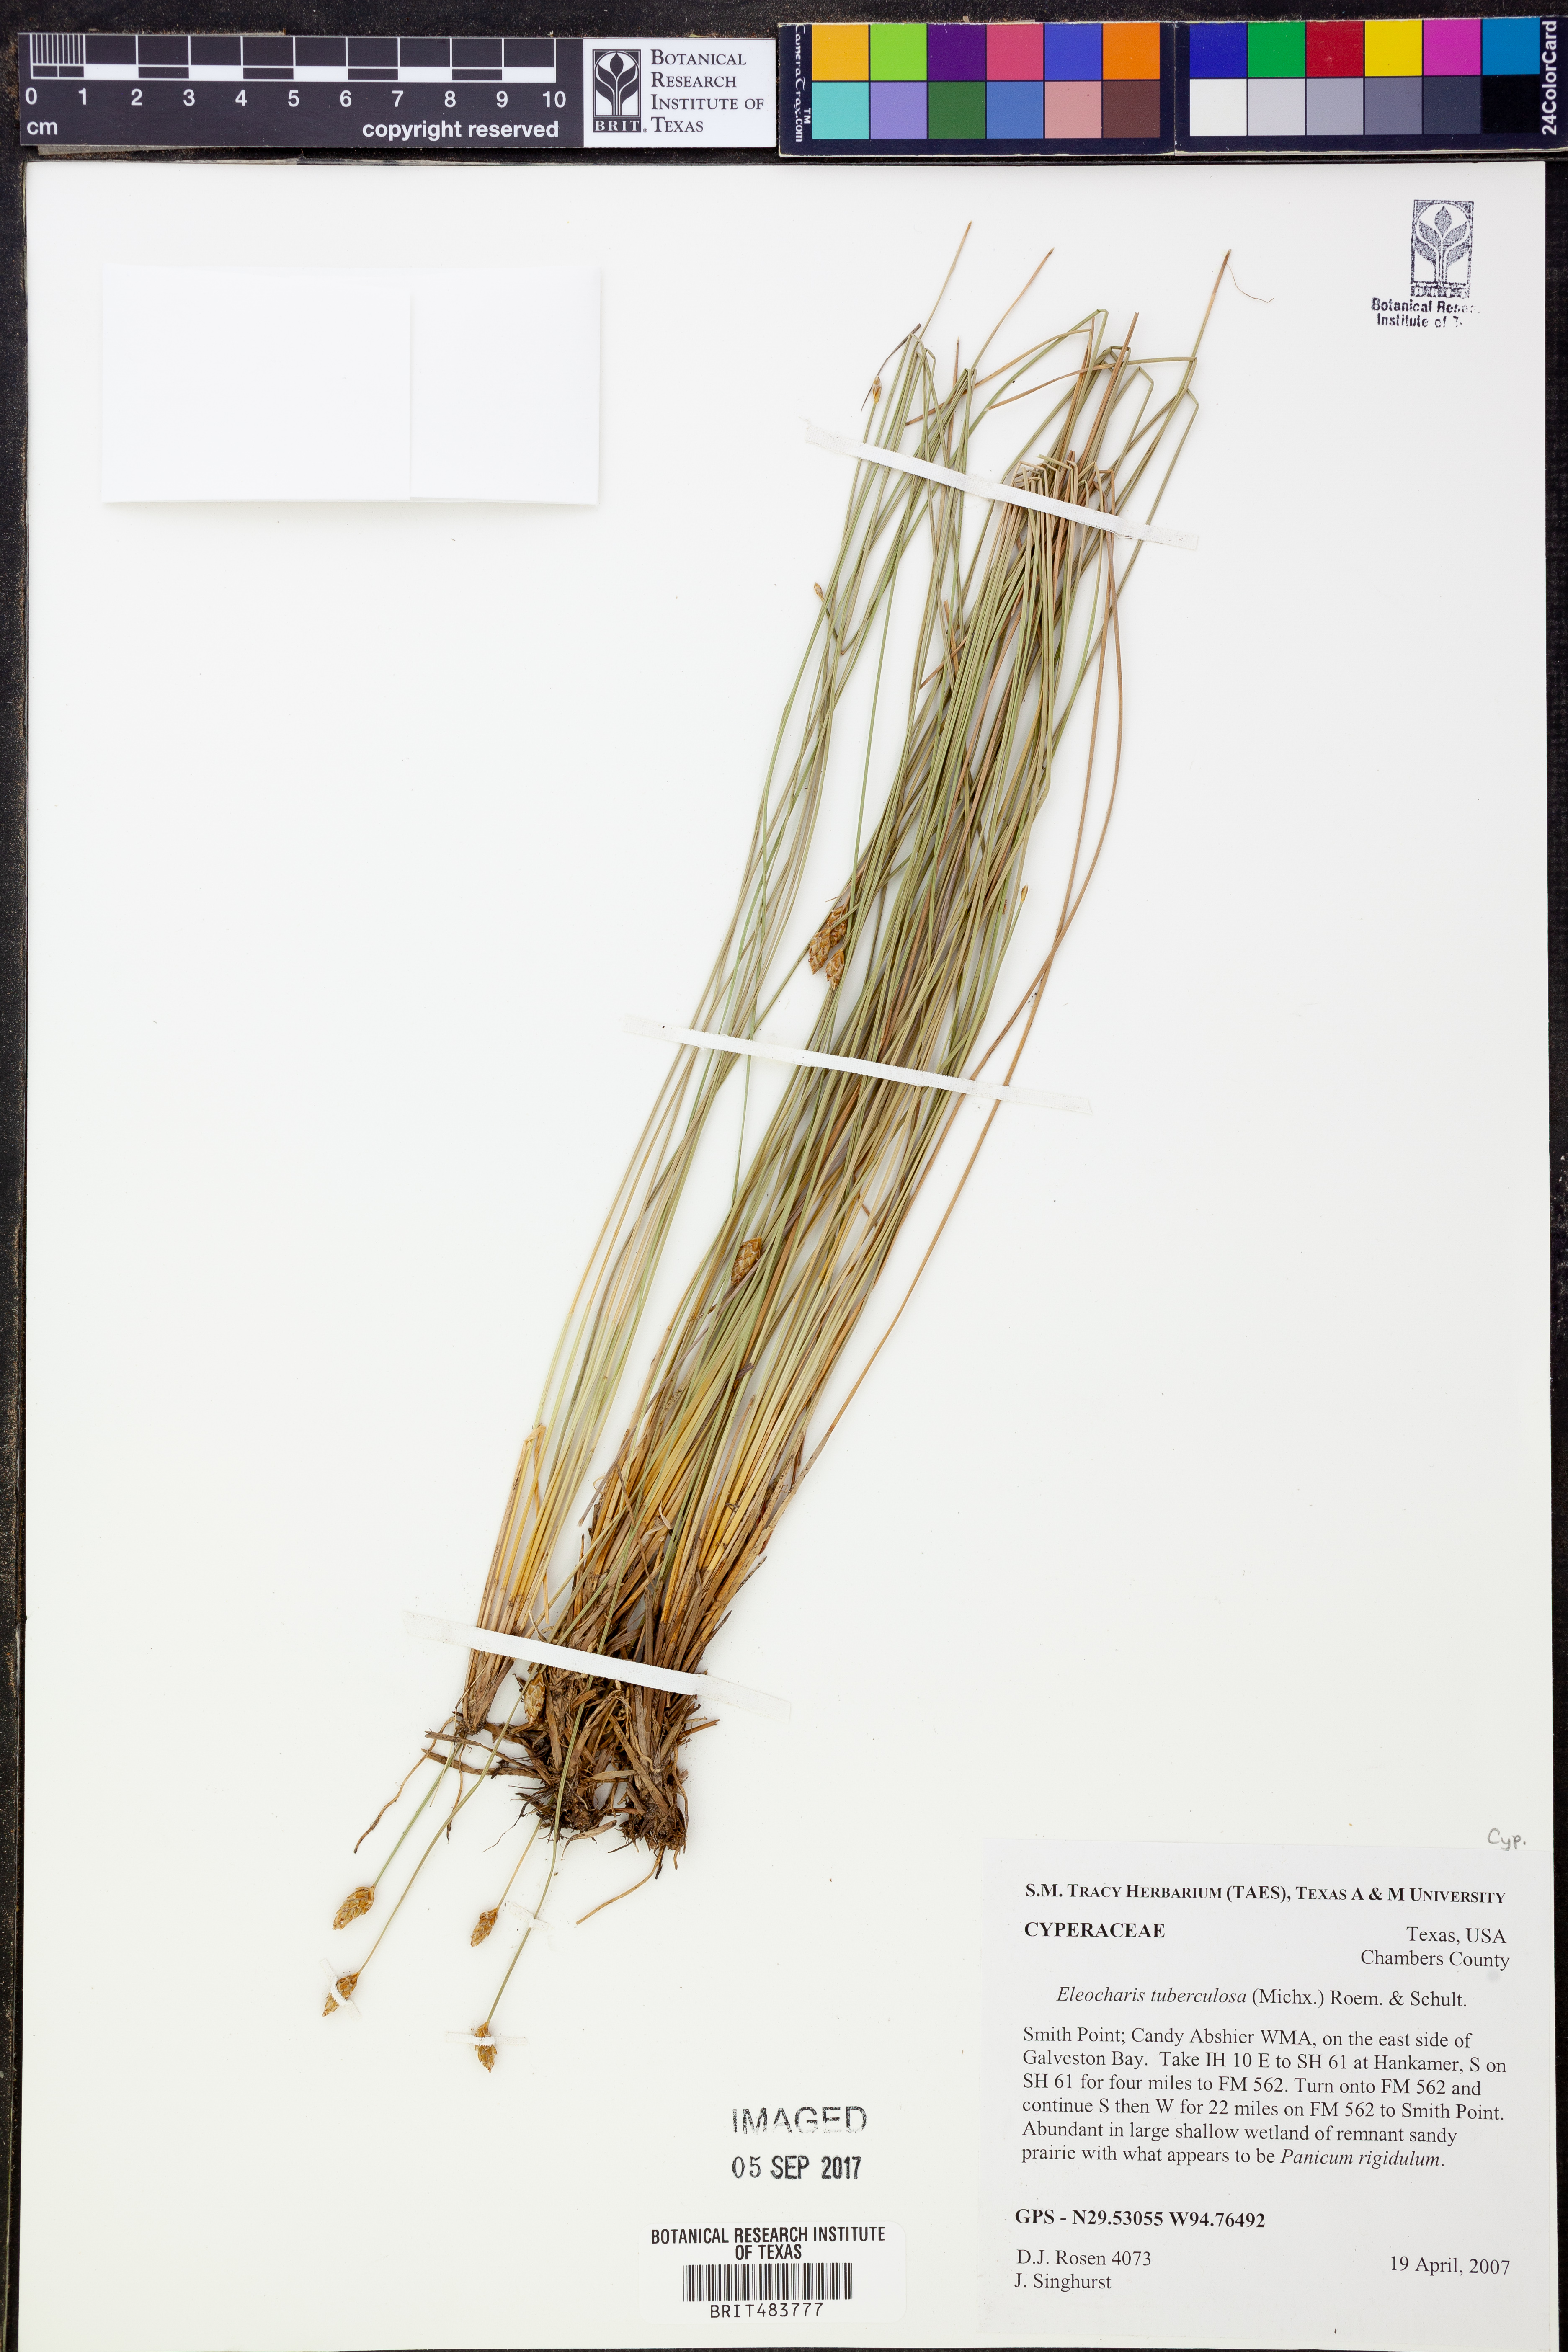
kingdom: Plantae
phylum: Tracheophyta
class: Liliopsida
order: Poales
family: Cyperaceae
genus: Eleocharis
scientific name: Eleocharis tuberculosa
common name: Cone-cup spikerush
